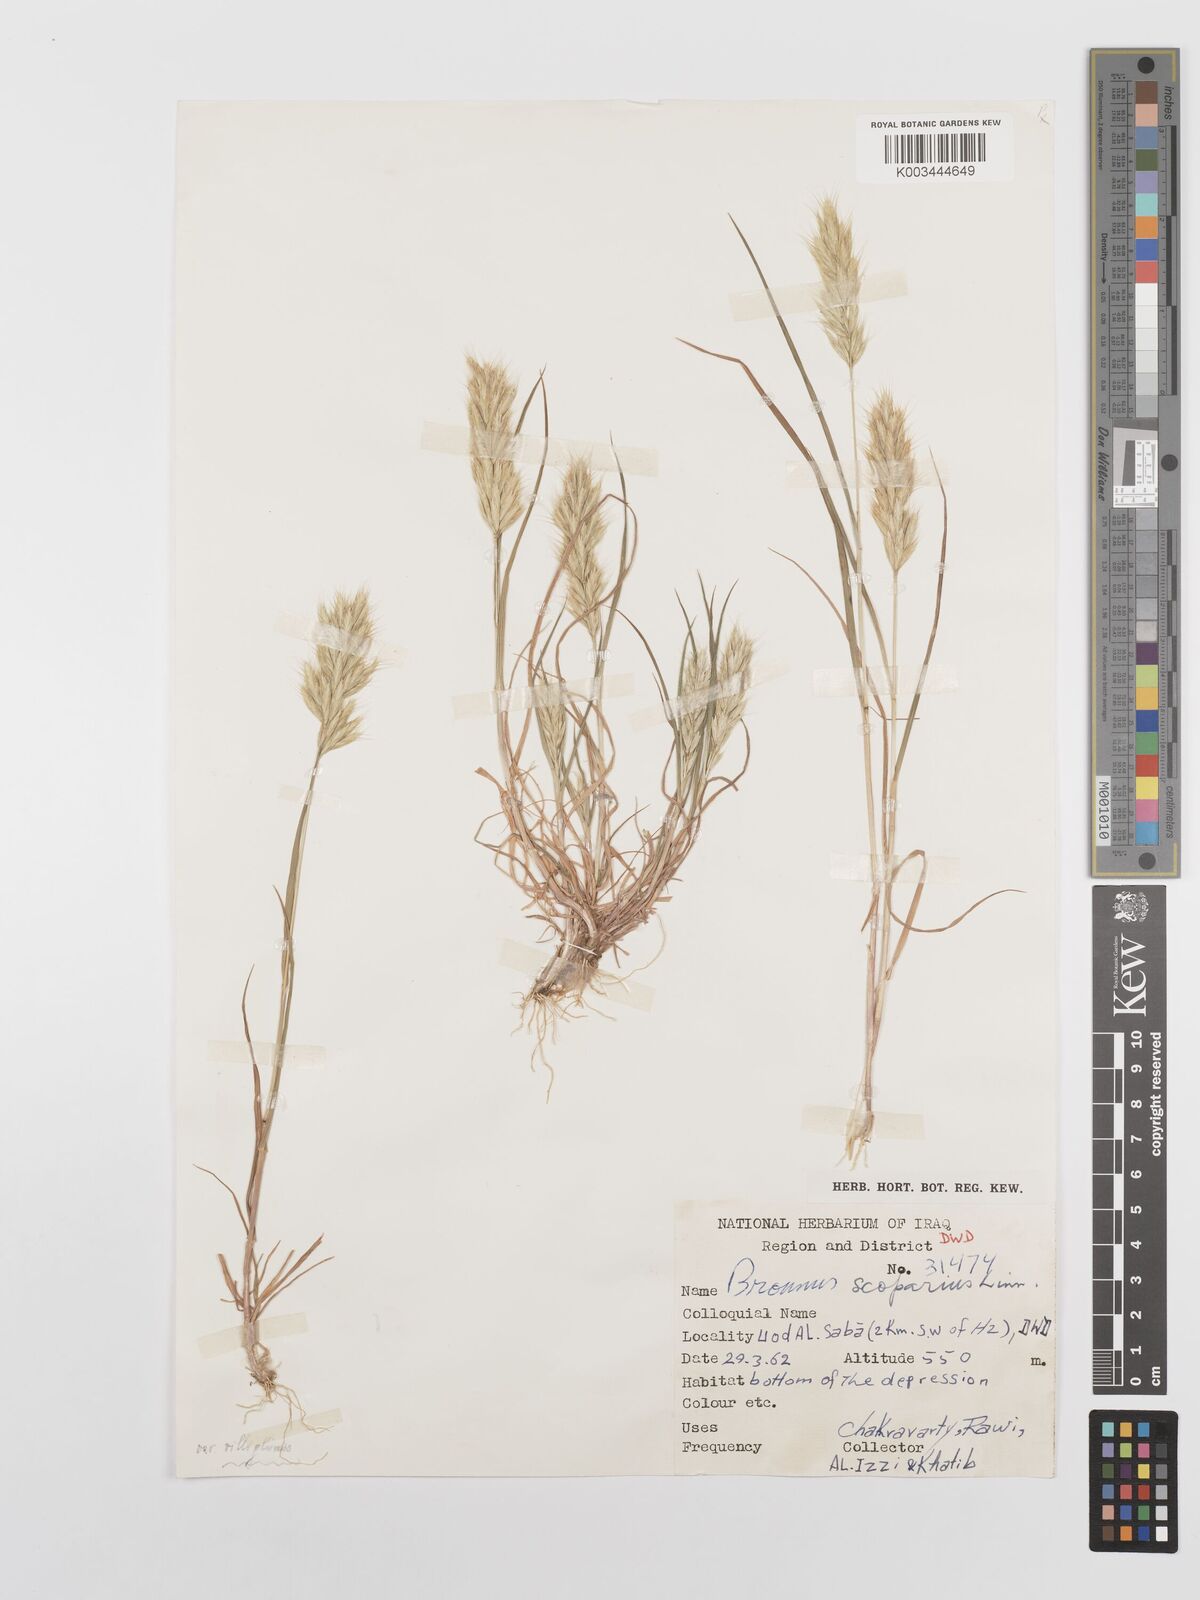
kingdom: Plantae
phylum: Tracheophyta
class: Liliopsida
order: Poales
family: Poaceae
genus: Bromus
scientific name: Bromus scoparius
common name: Broom brome
